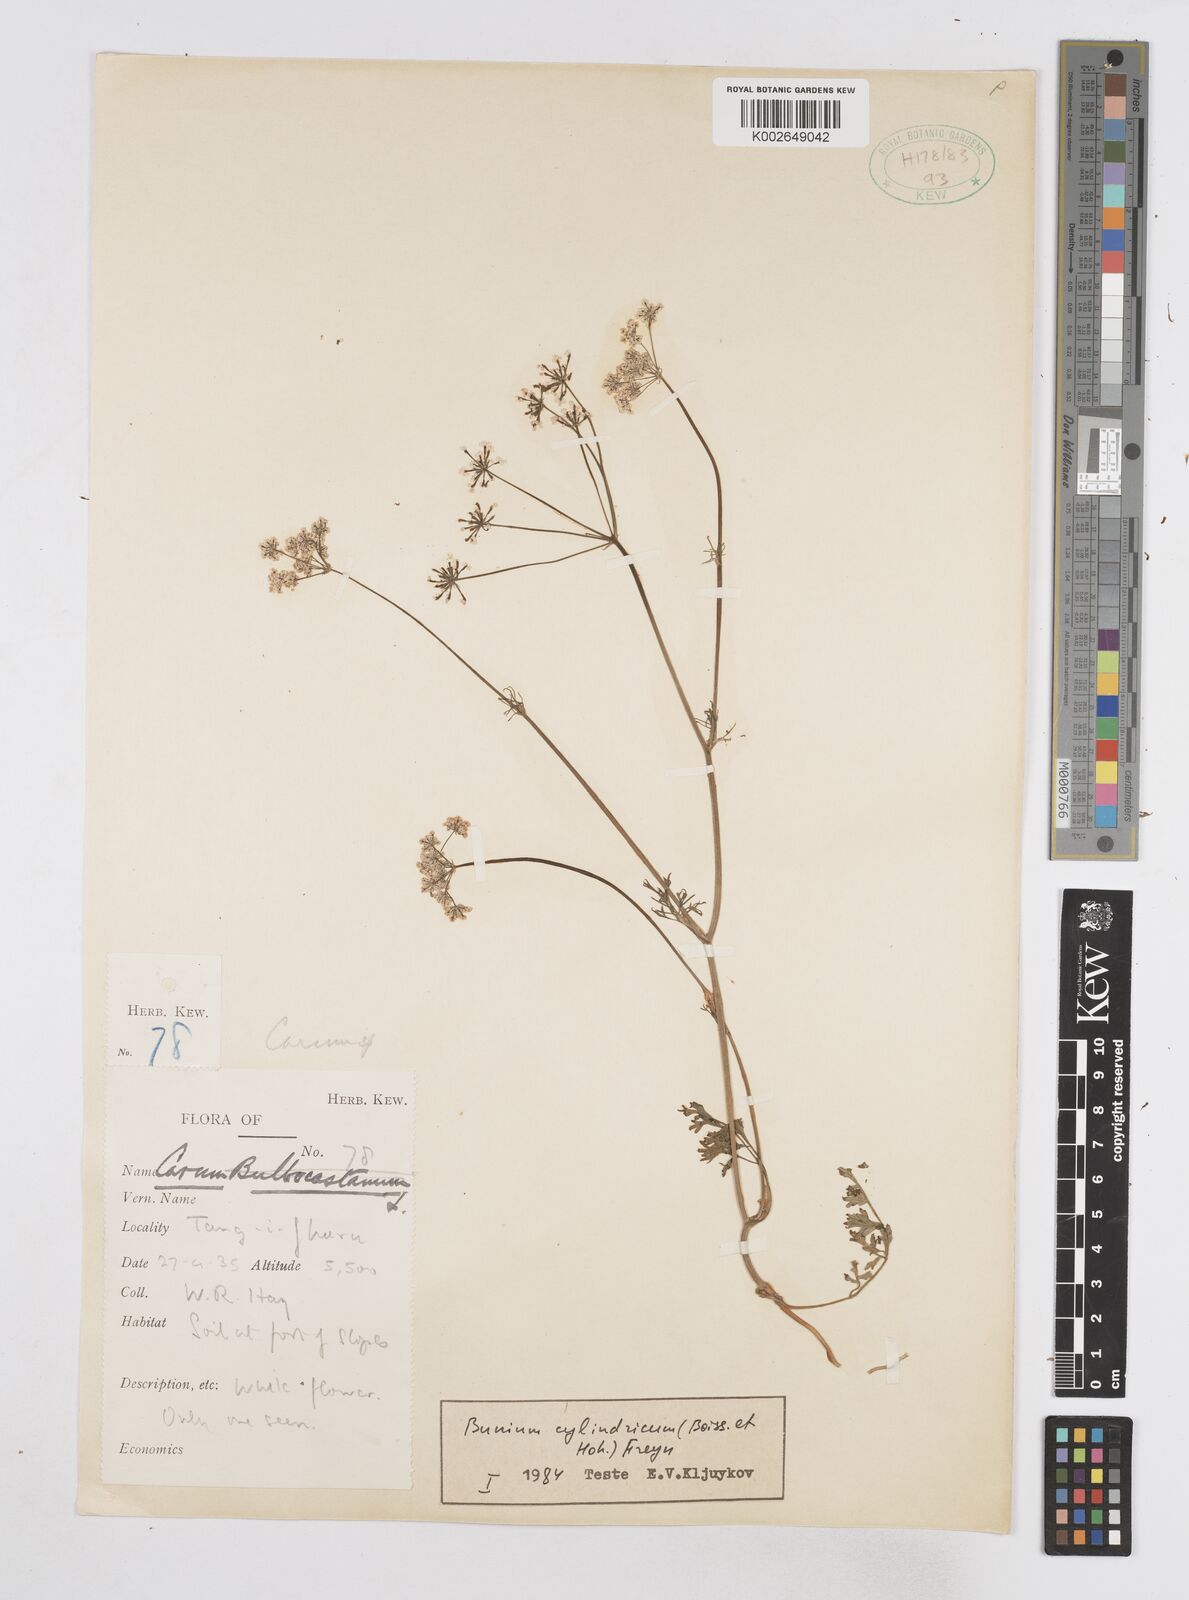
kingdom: Plantae
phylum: Tracheophyta
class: Magnoliopsida
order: Apiales
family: Apiaceae
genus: Elwendia
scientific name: Elwendia cylindrica
